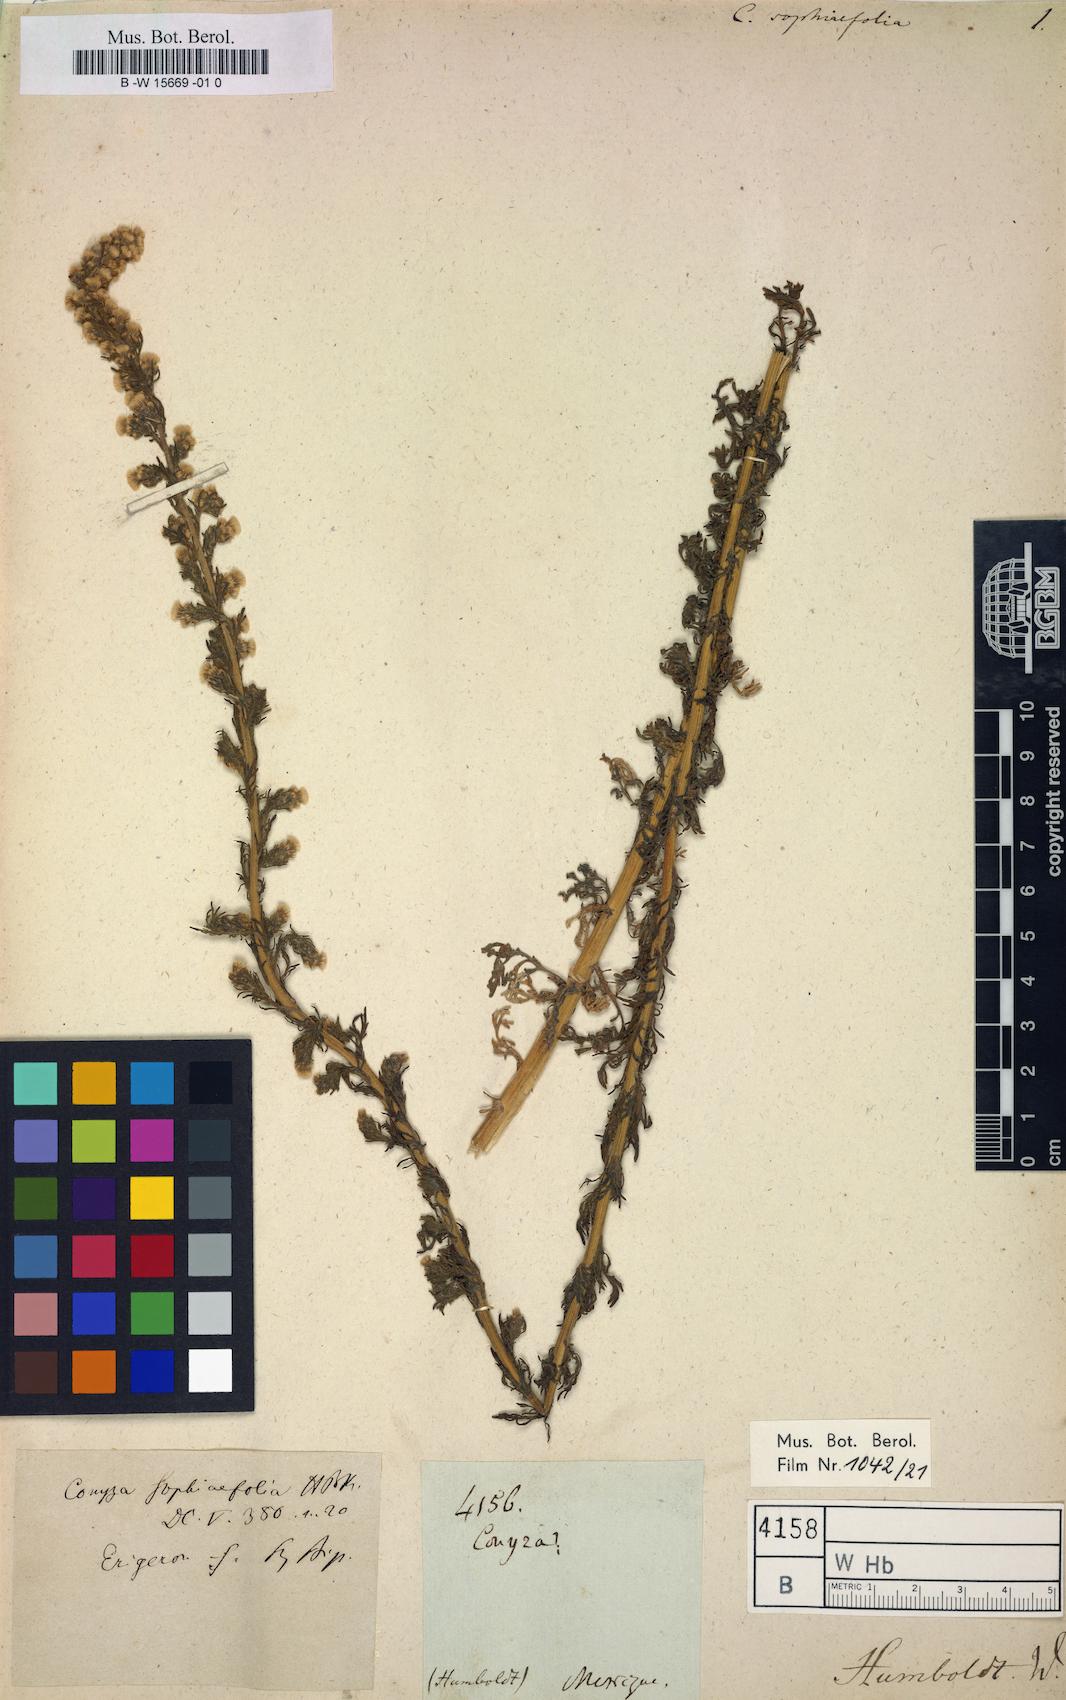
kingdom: Plantae
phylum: Tracheophyta
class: Magnoliopsida
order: Asterales
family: Asteraceae
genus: Laennecia
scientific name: Laennecia sophiifolia
